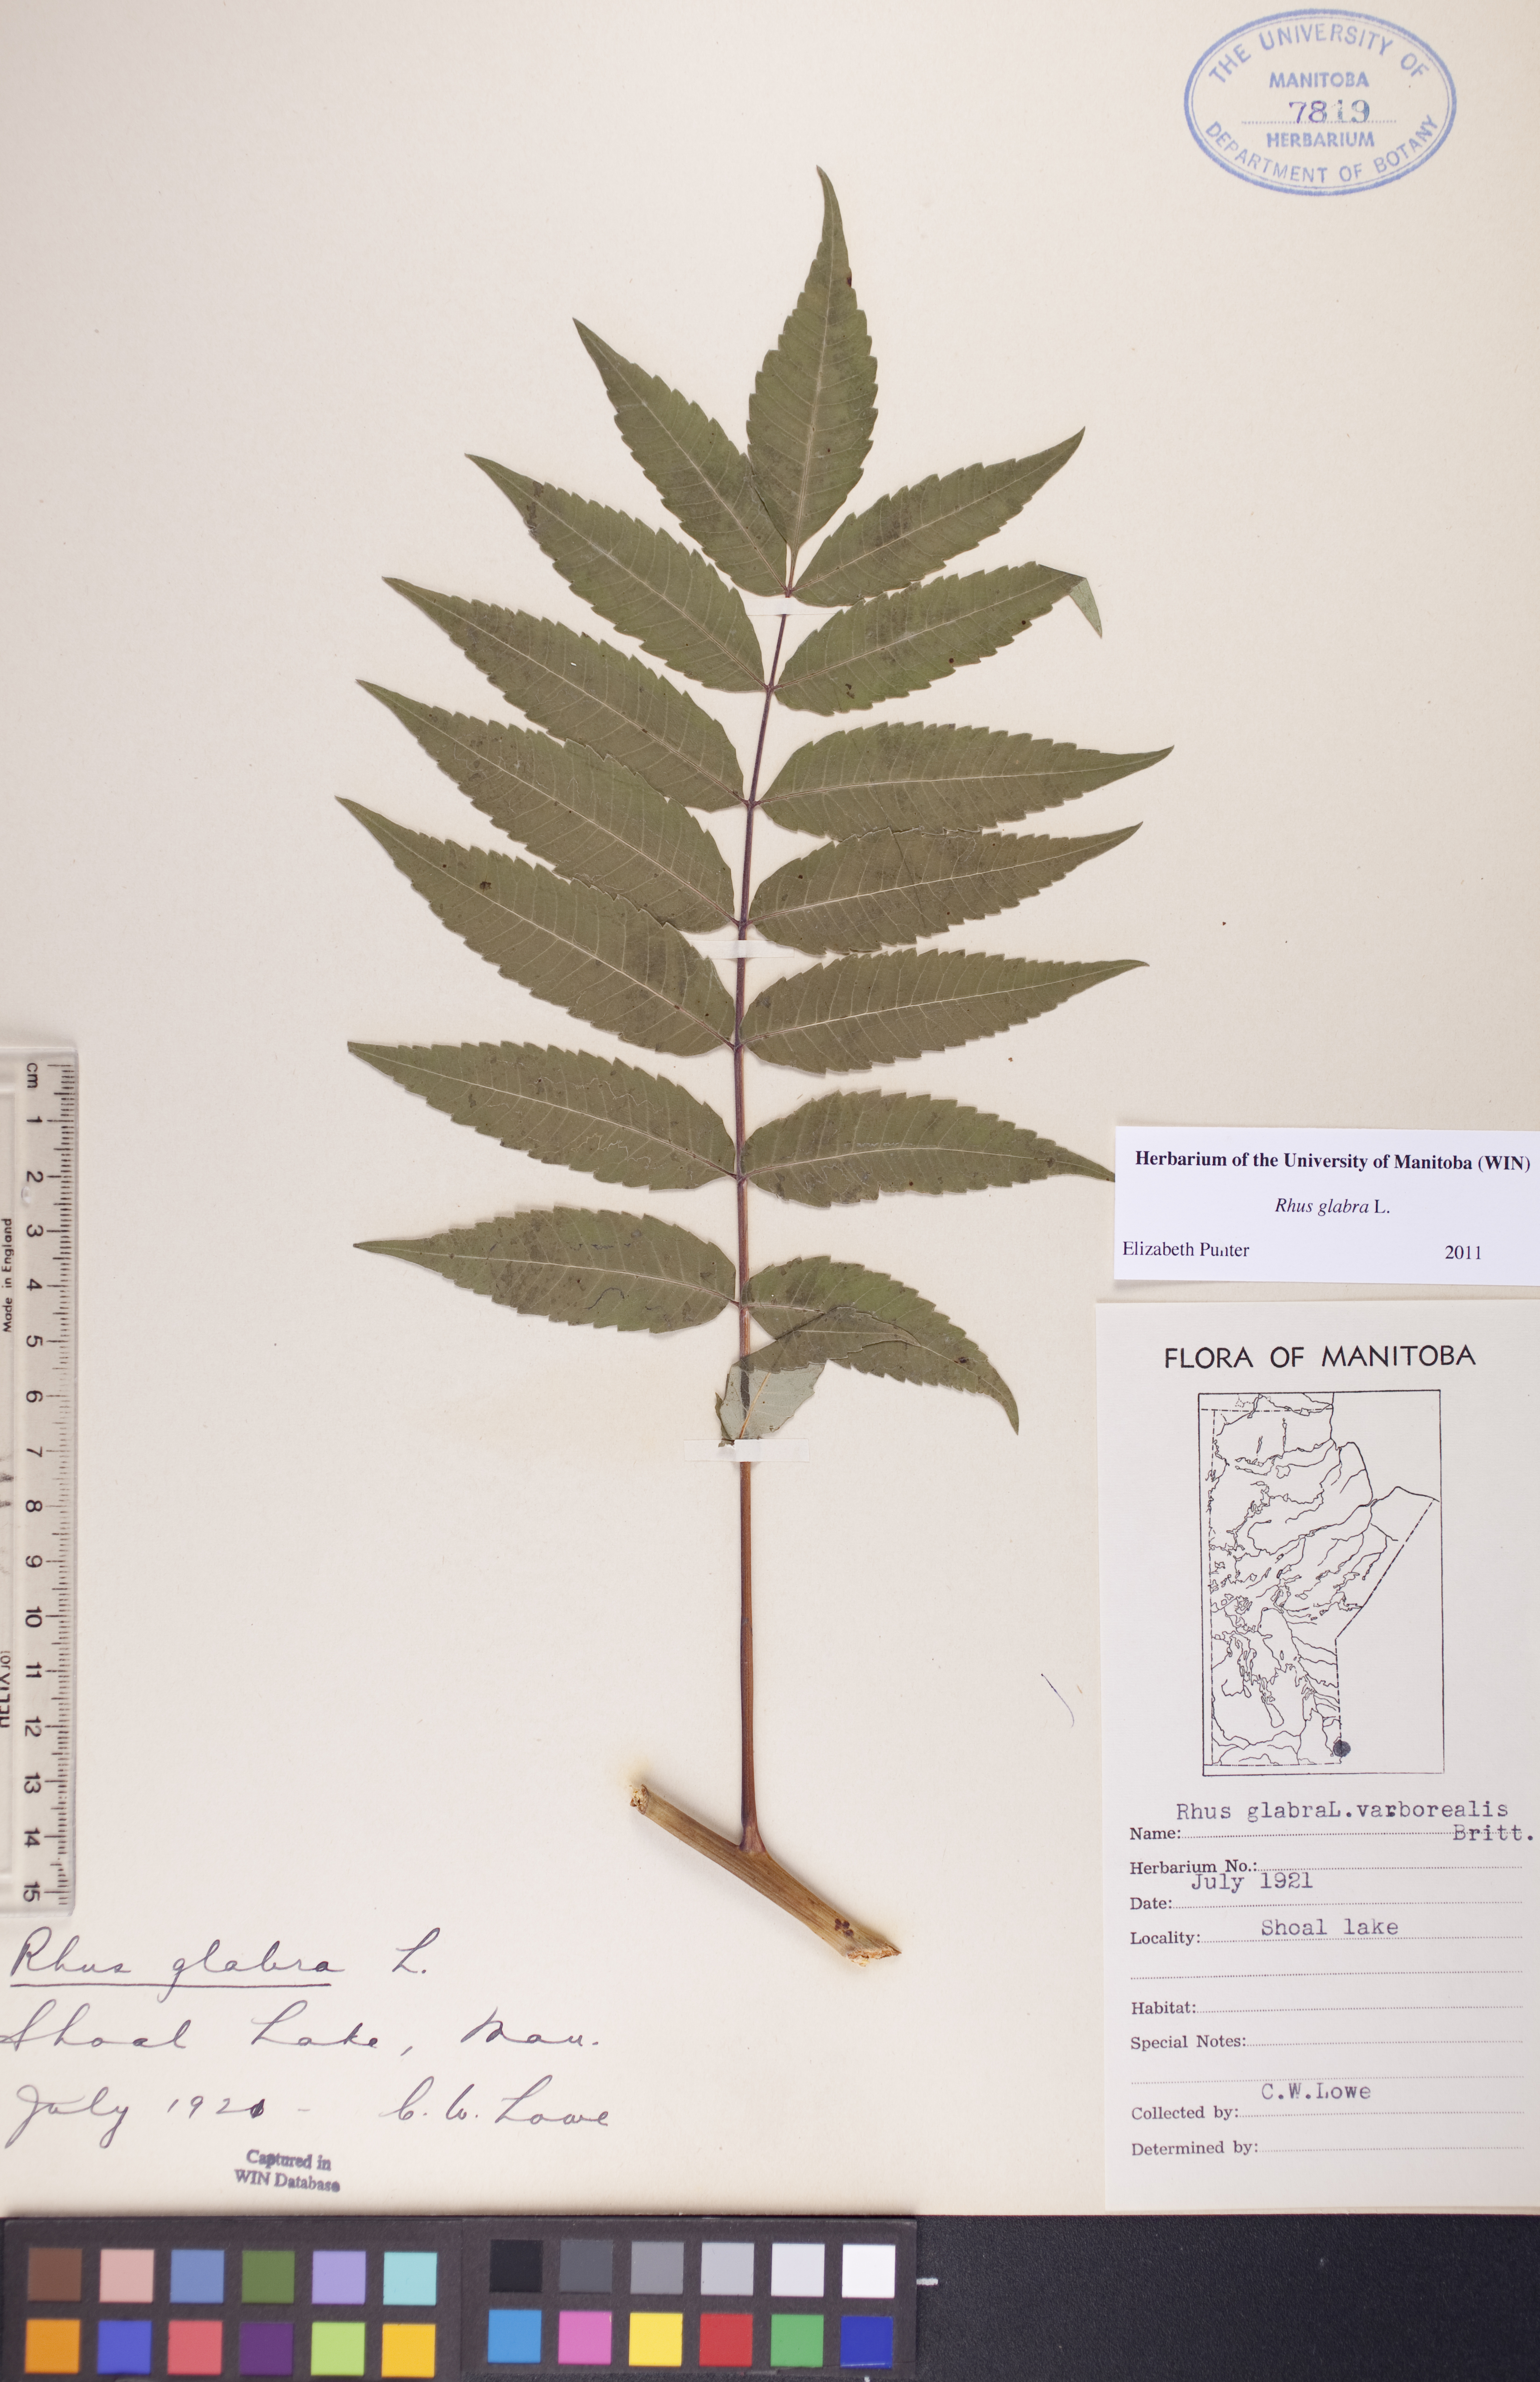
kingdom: Plantae
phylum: Tracheophyta
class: Magnoliopsida
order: Sapindales
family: Anacardiaceae
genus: Rhus
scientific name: Rhus glabra
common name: Scarlet sumac
